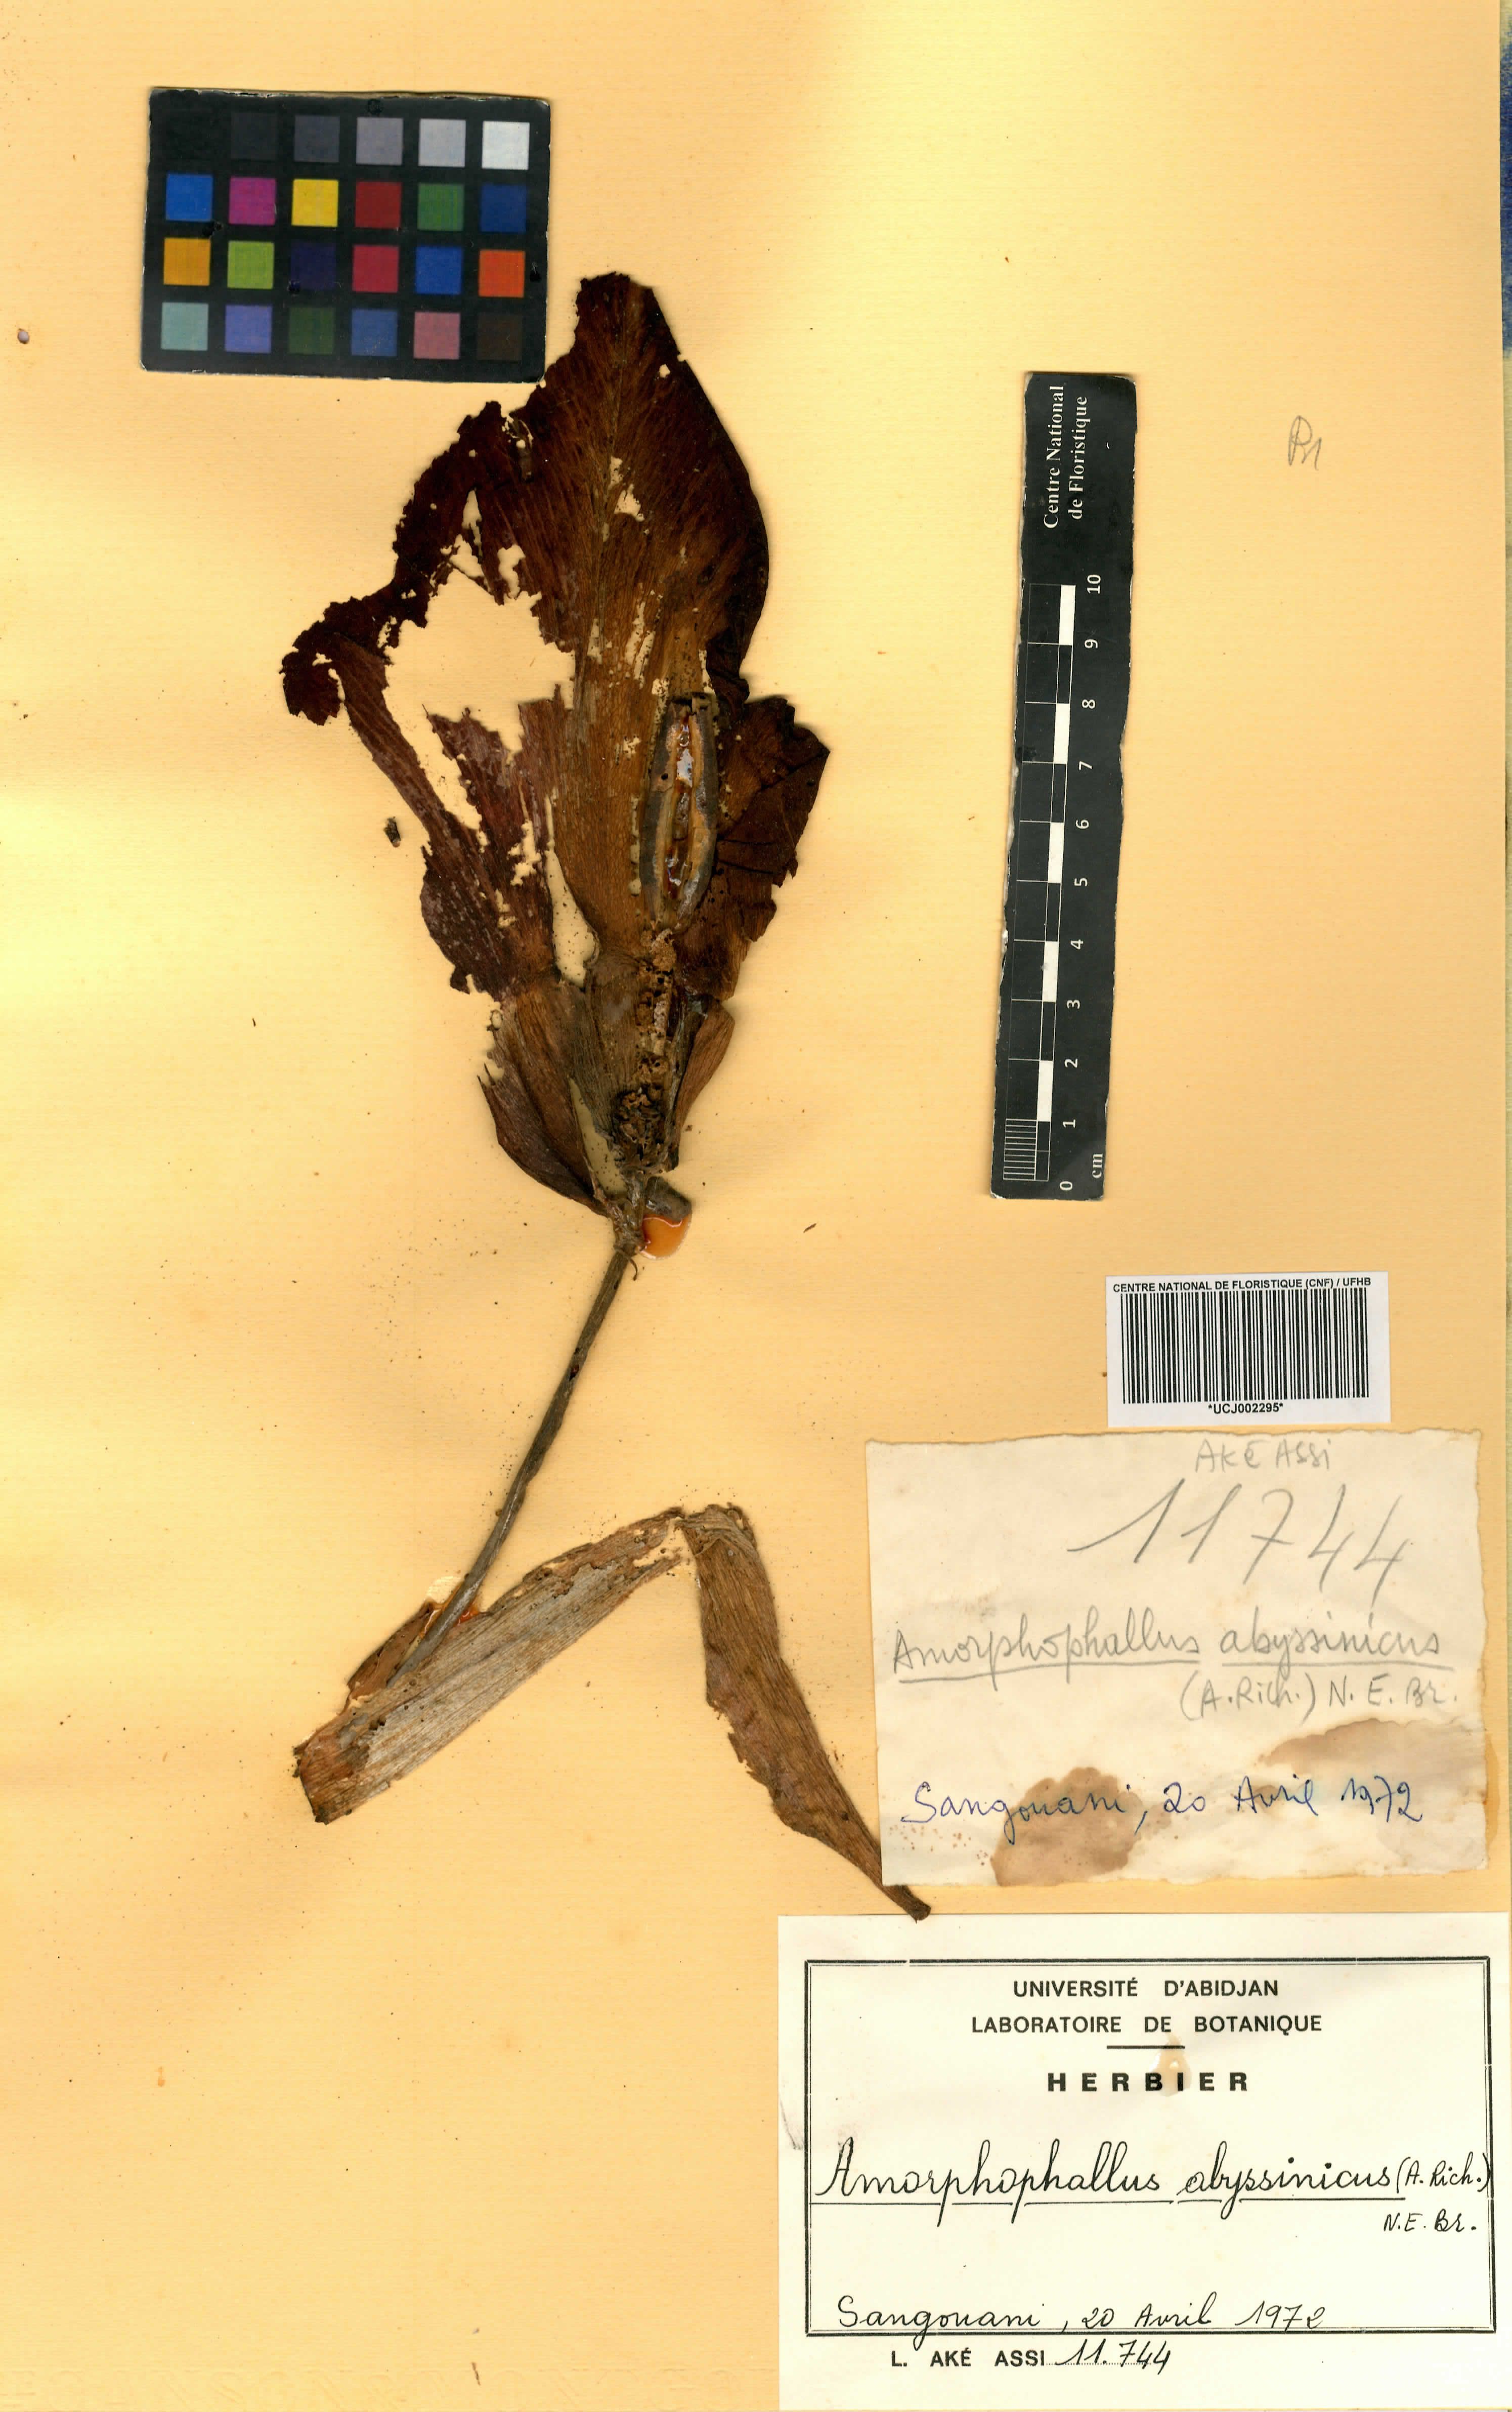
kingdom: Plantae
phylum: Tracheophyta
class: Liliopsida
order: Alismatales
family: Araceae
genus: Amorphophallus
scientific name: Amorphophallus abyssinicus
